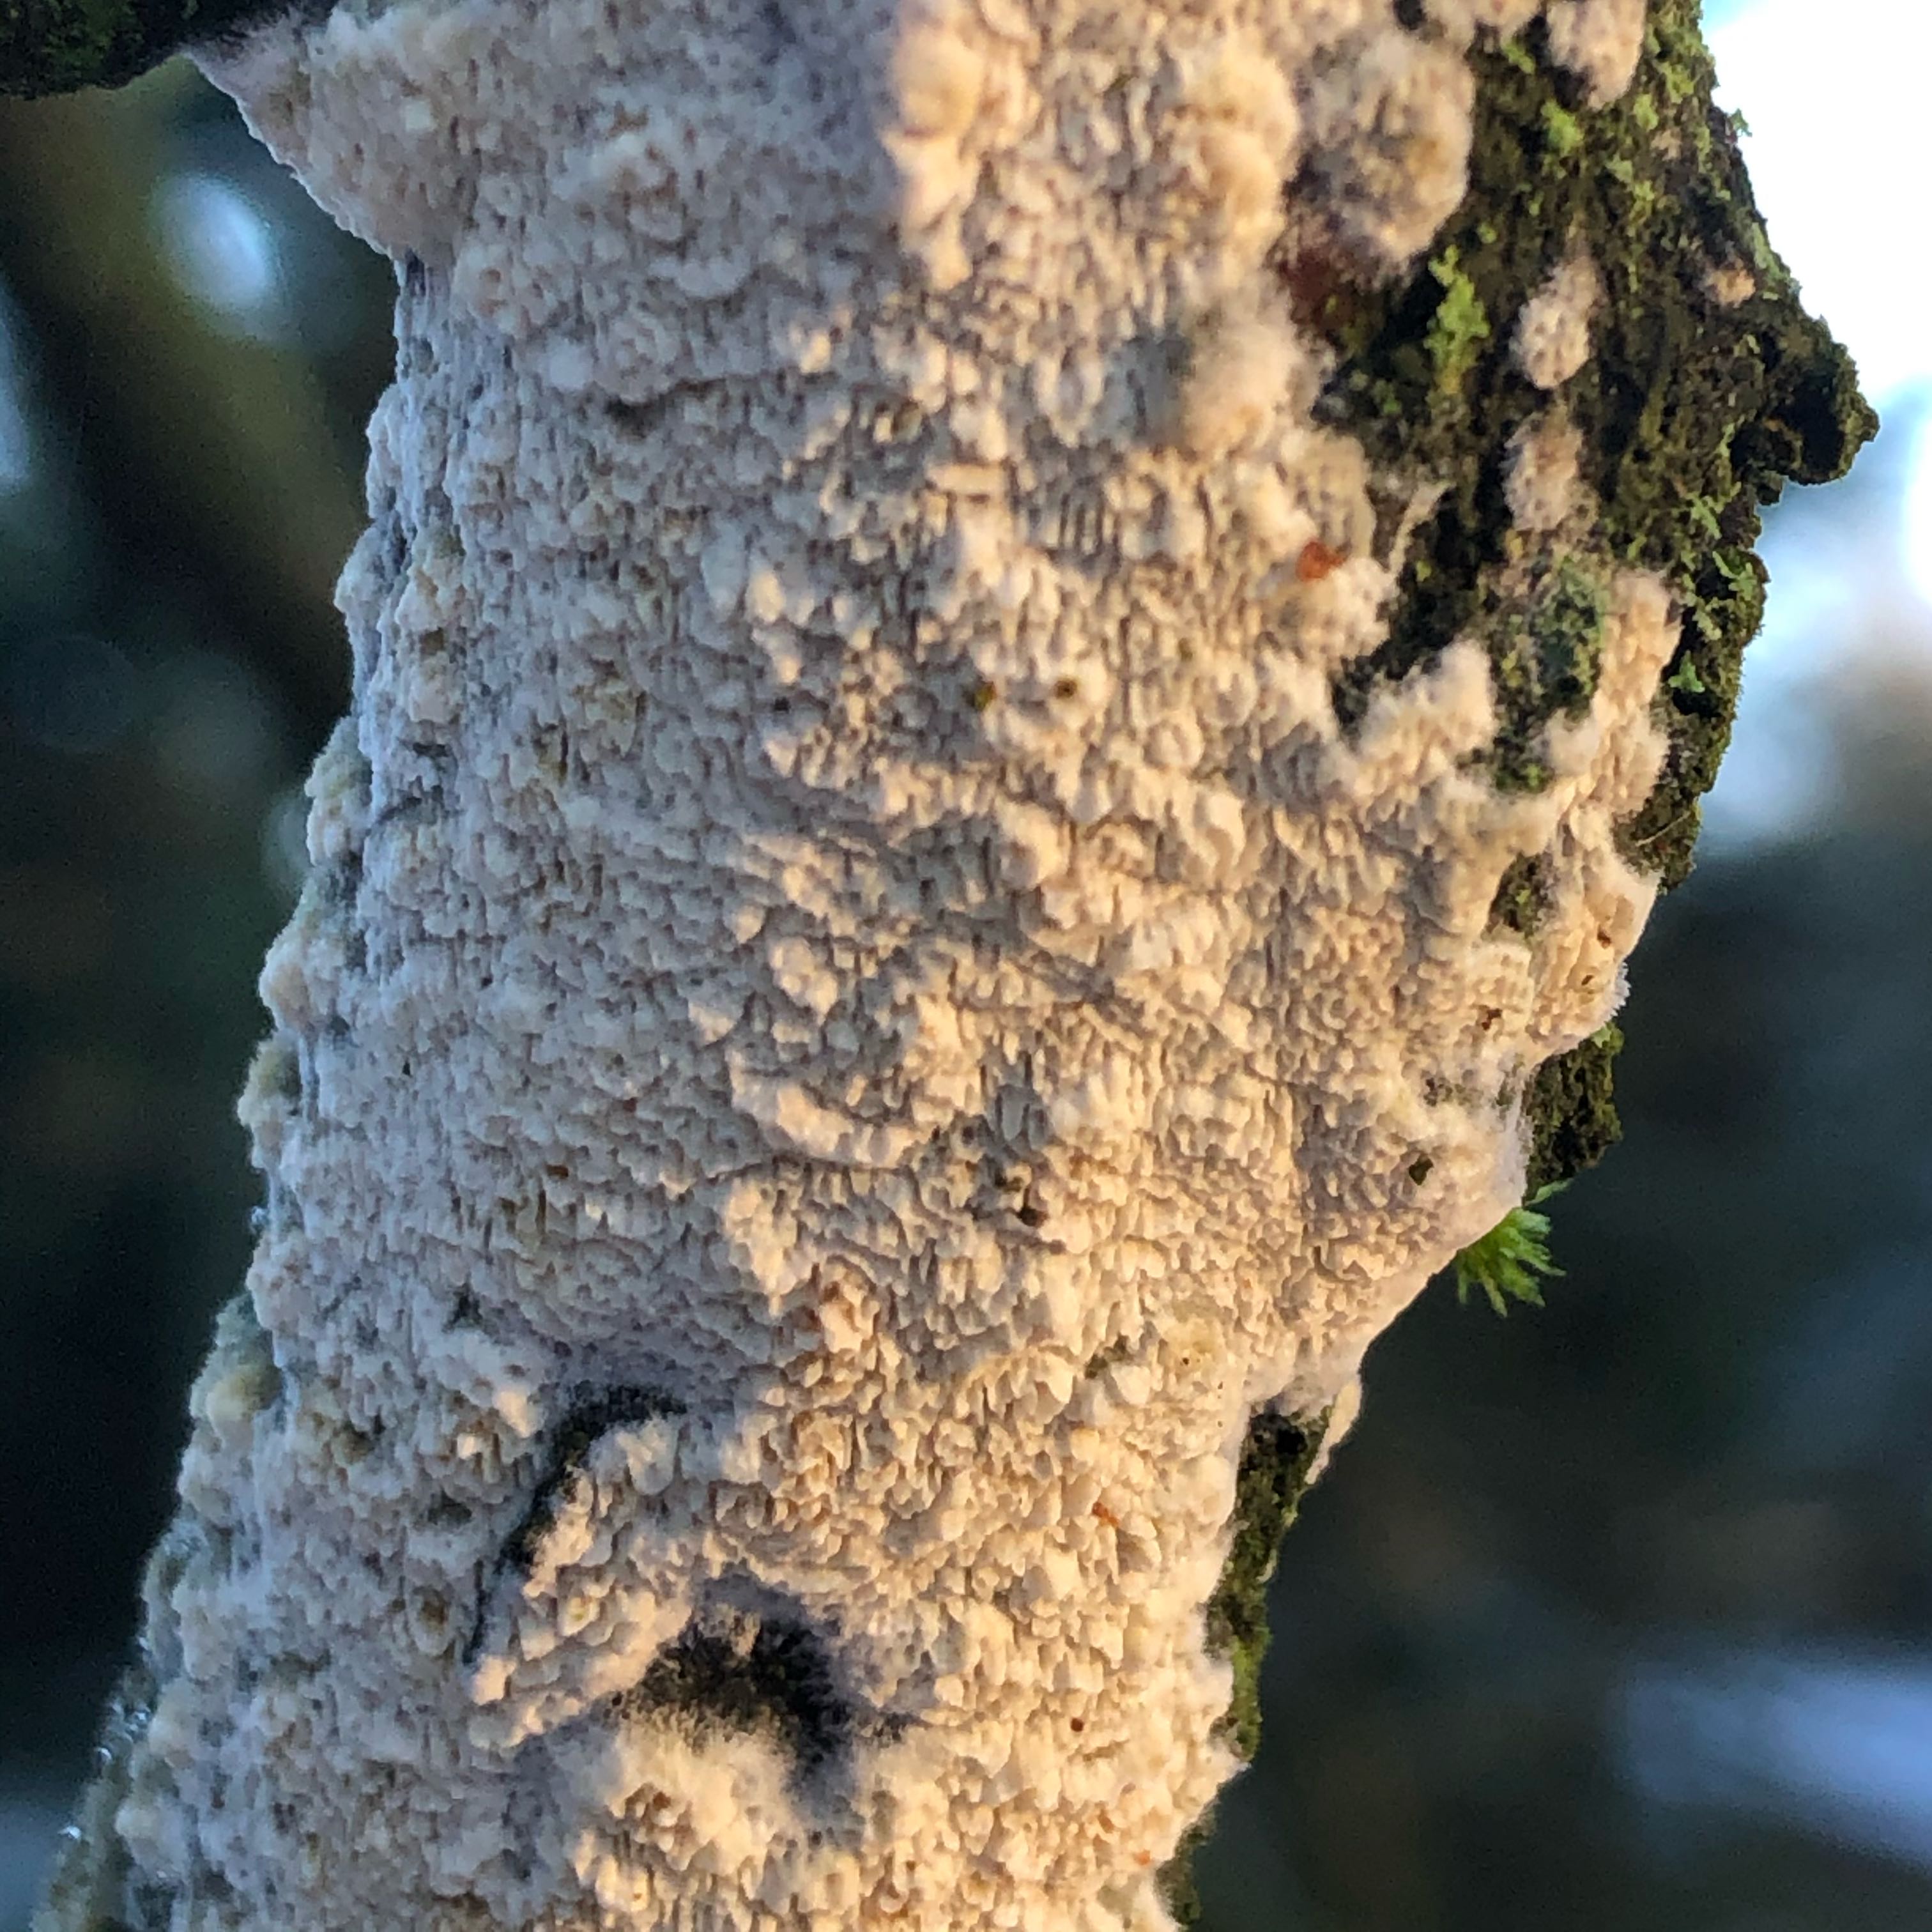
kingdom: Fungi
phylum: Basidiomycota
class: Agaricomycetes
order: Hymenochaetales
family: Schizoporaceae
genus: Xylodon
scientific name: Xylodon
